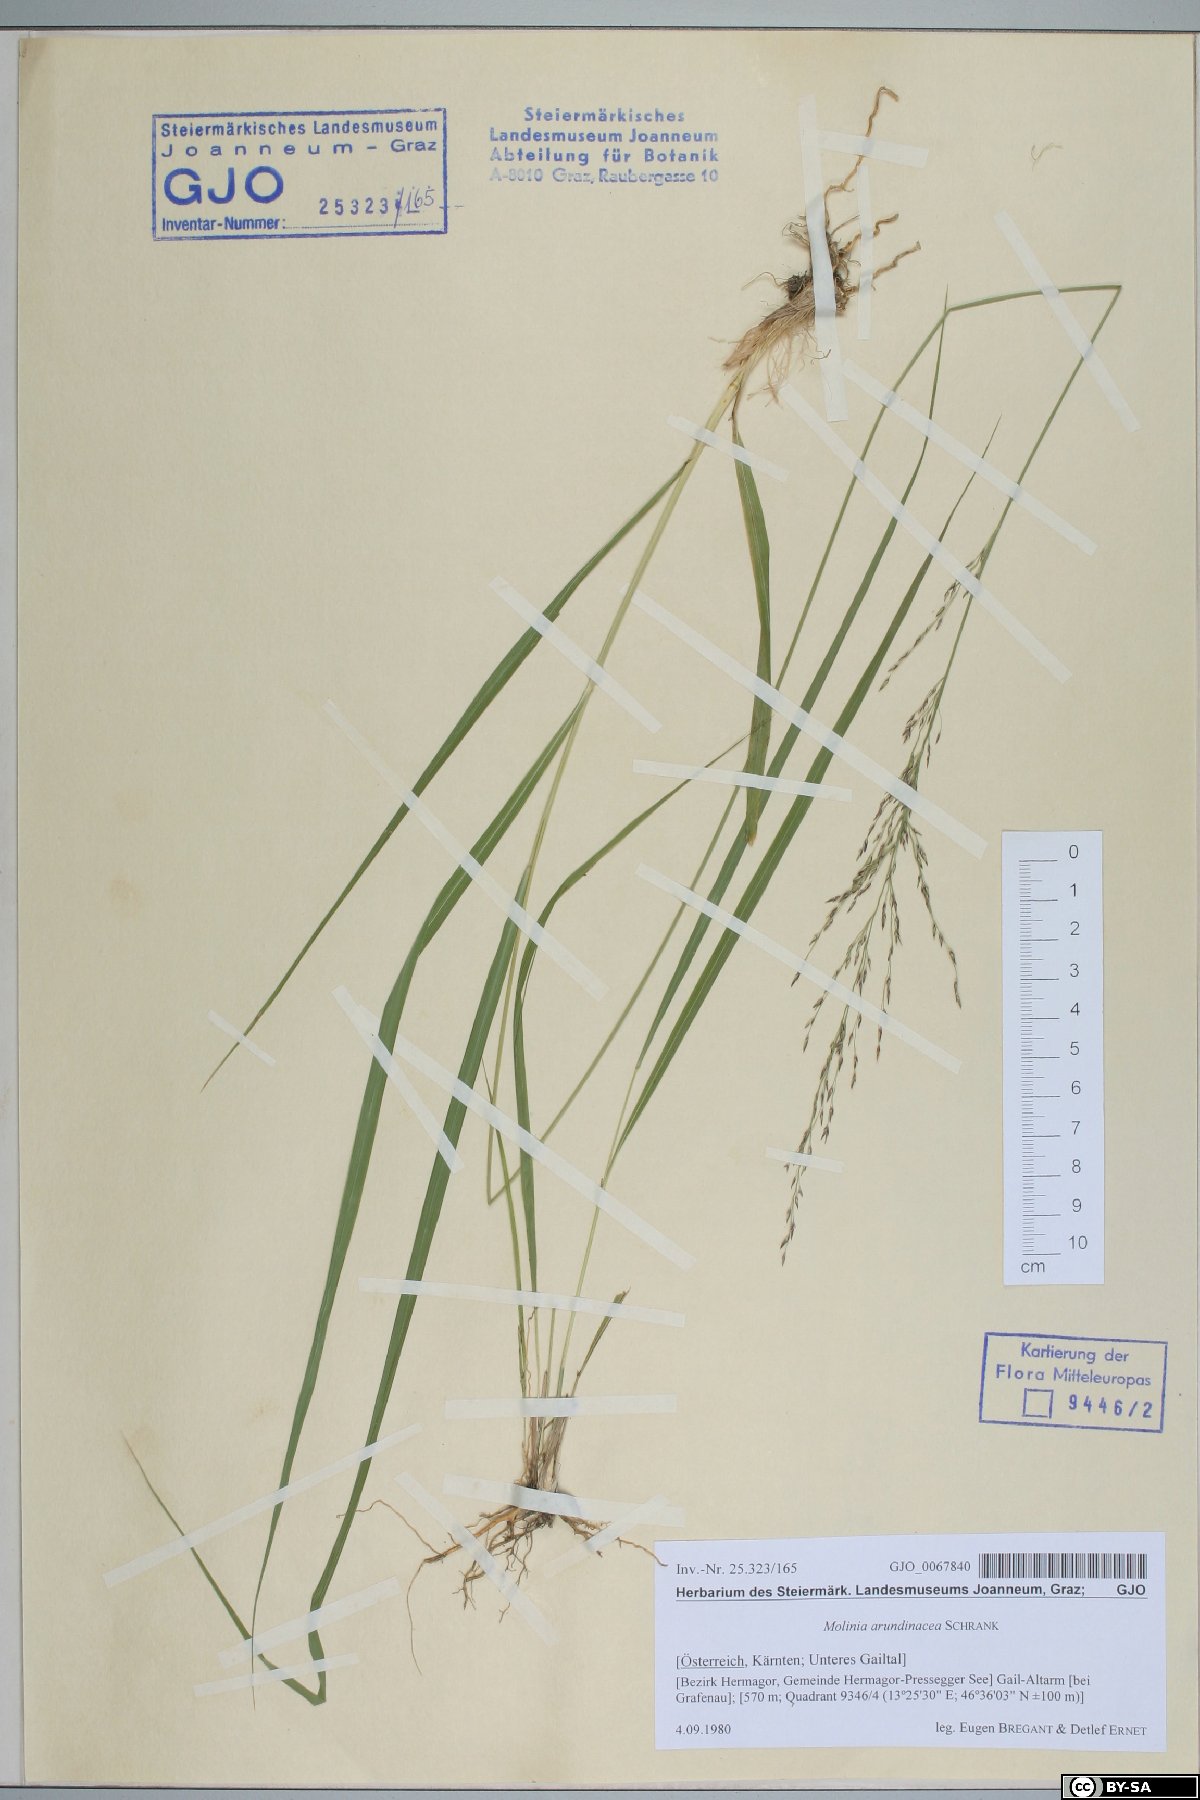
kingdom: Plantae
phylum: Tracheophyta
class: Liliopsida
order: Poales
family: Poaceae
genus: Molinia
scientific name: Molinia arundinacea
